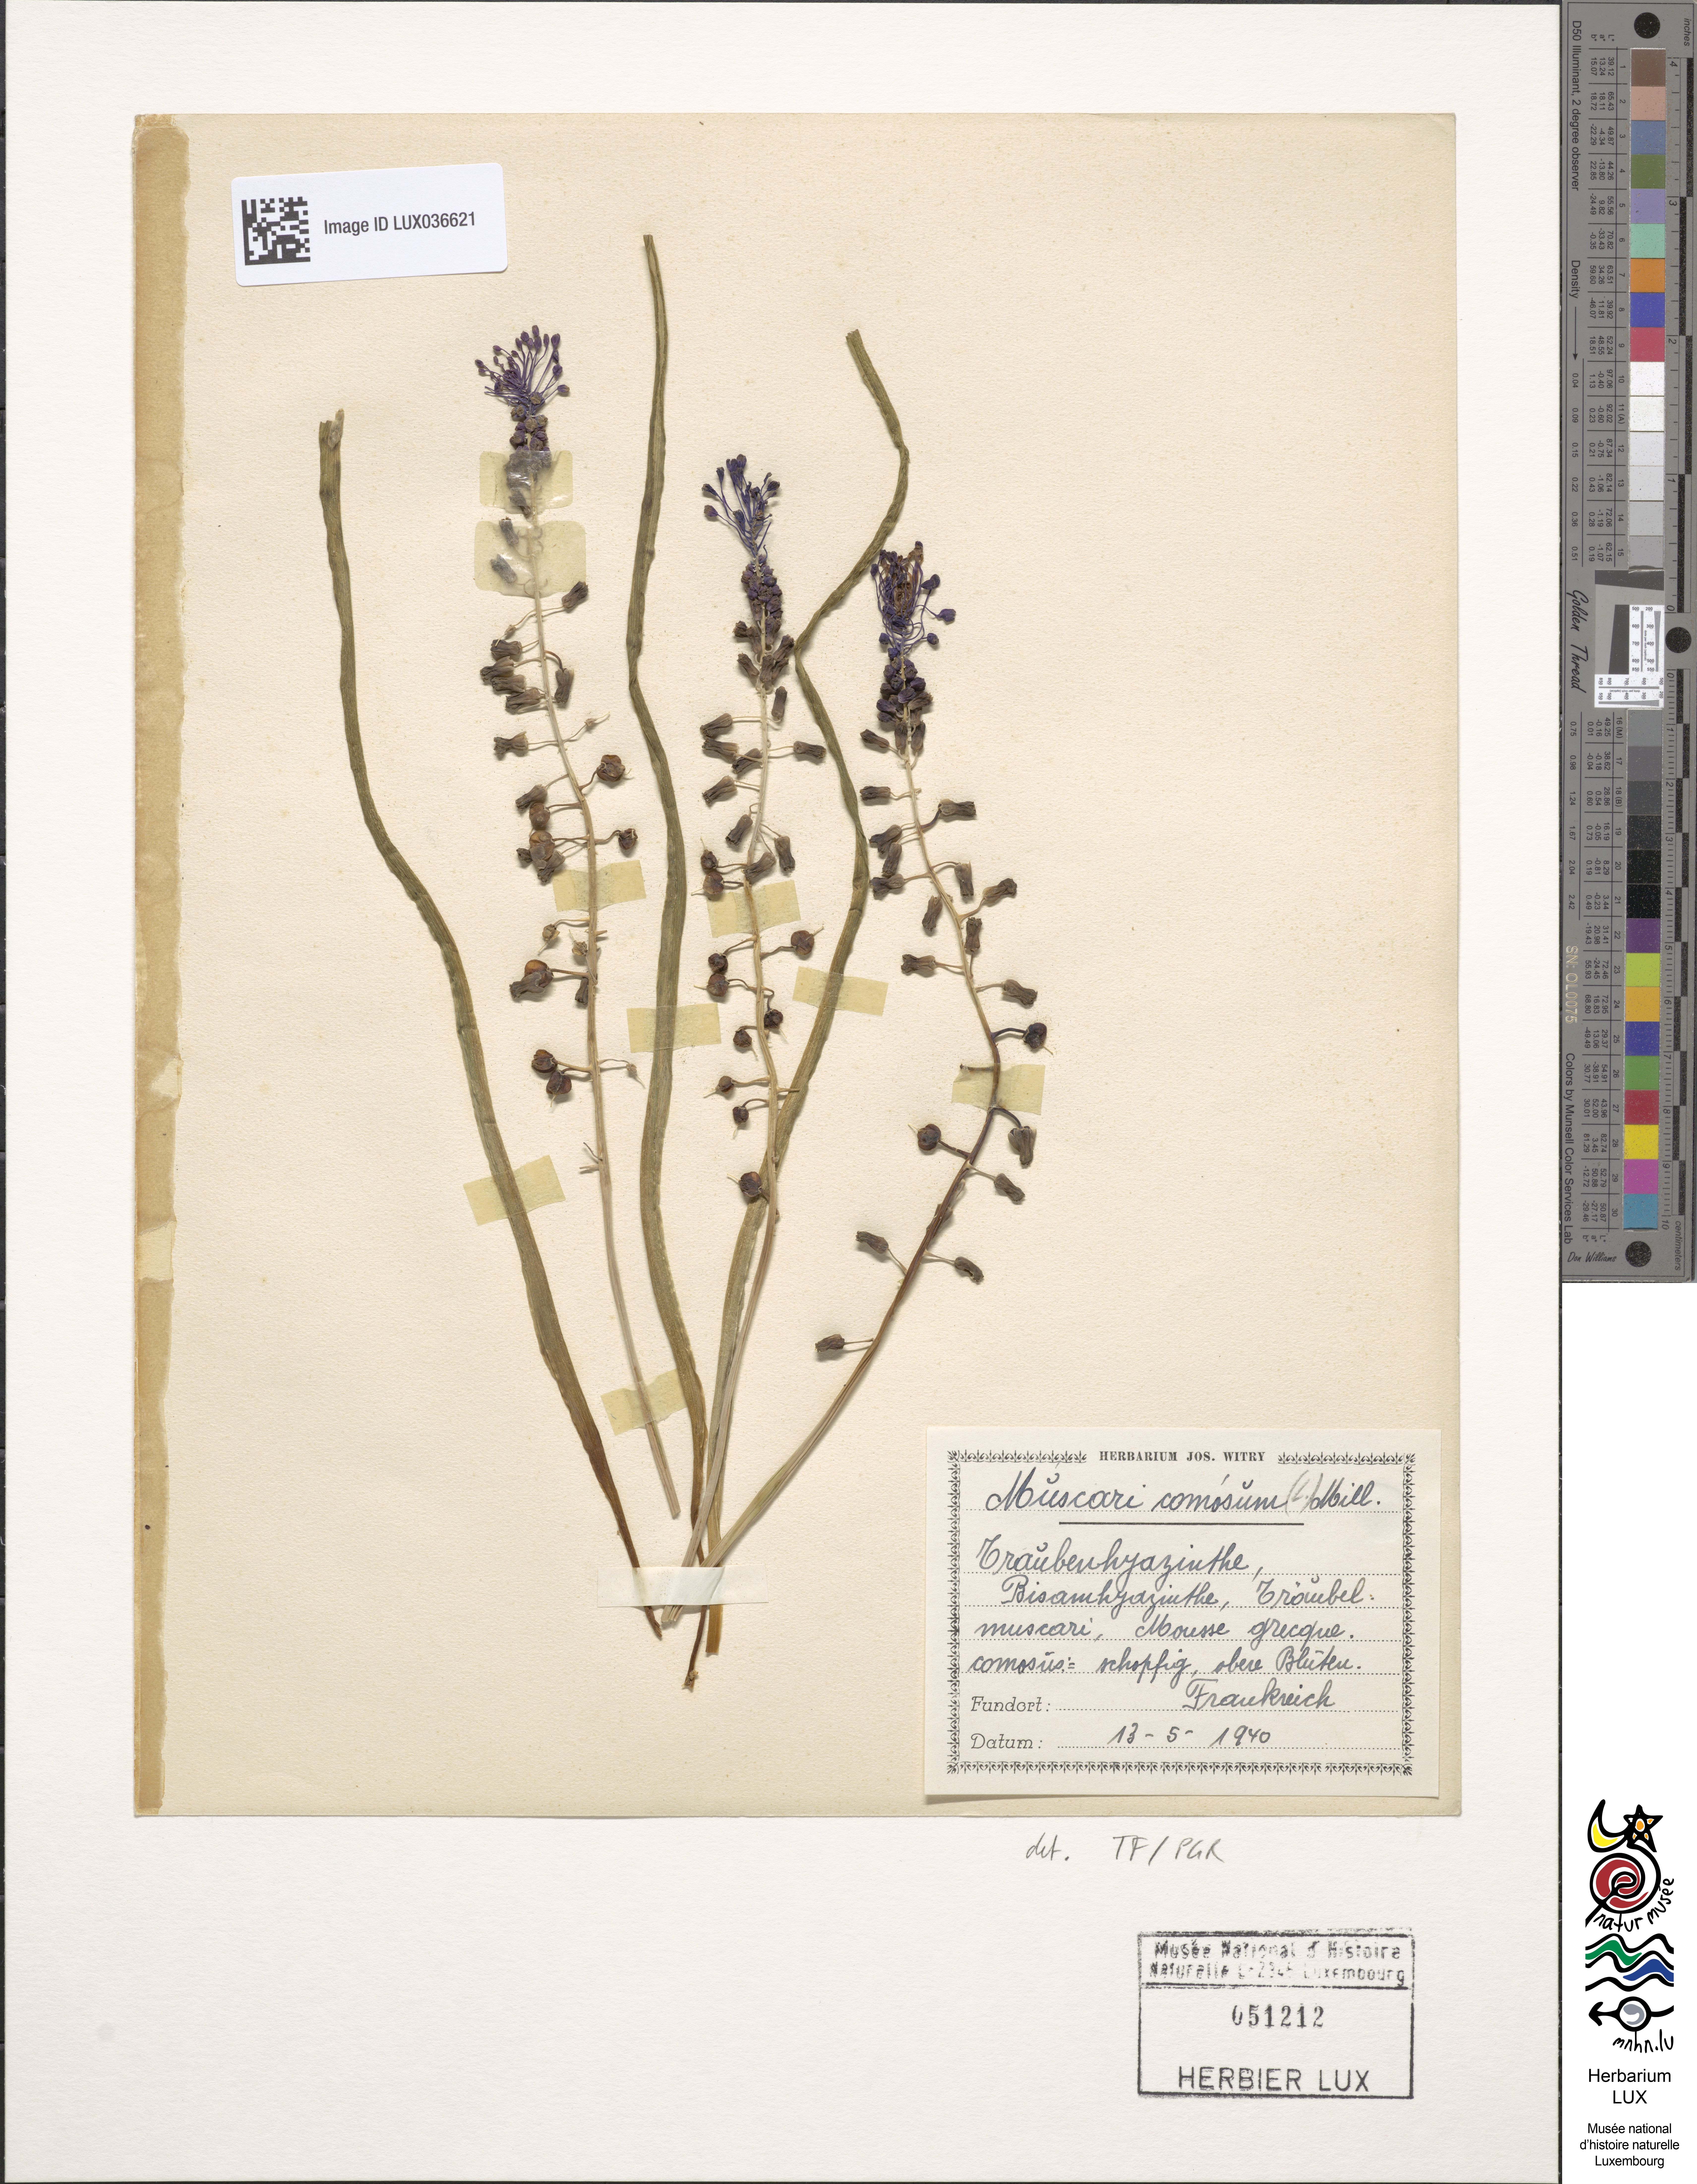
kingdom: Plantae
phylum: Tracheophyta
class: Liliopsida
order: Asparagales
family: Asparagaceae
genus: Muscari
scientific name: Muscari comosum
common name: Tassel hyacinth
